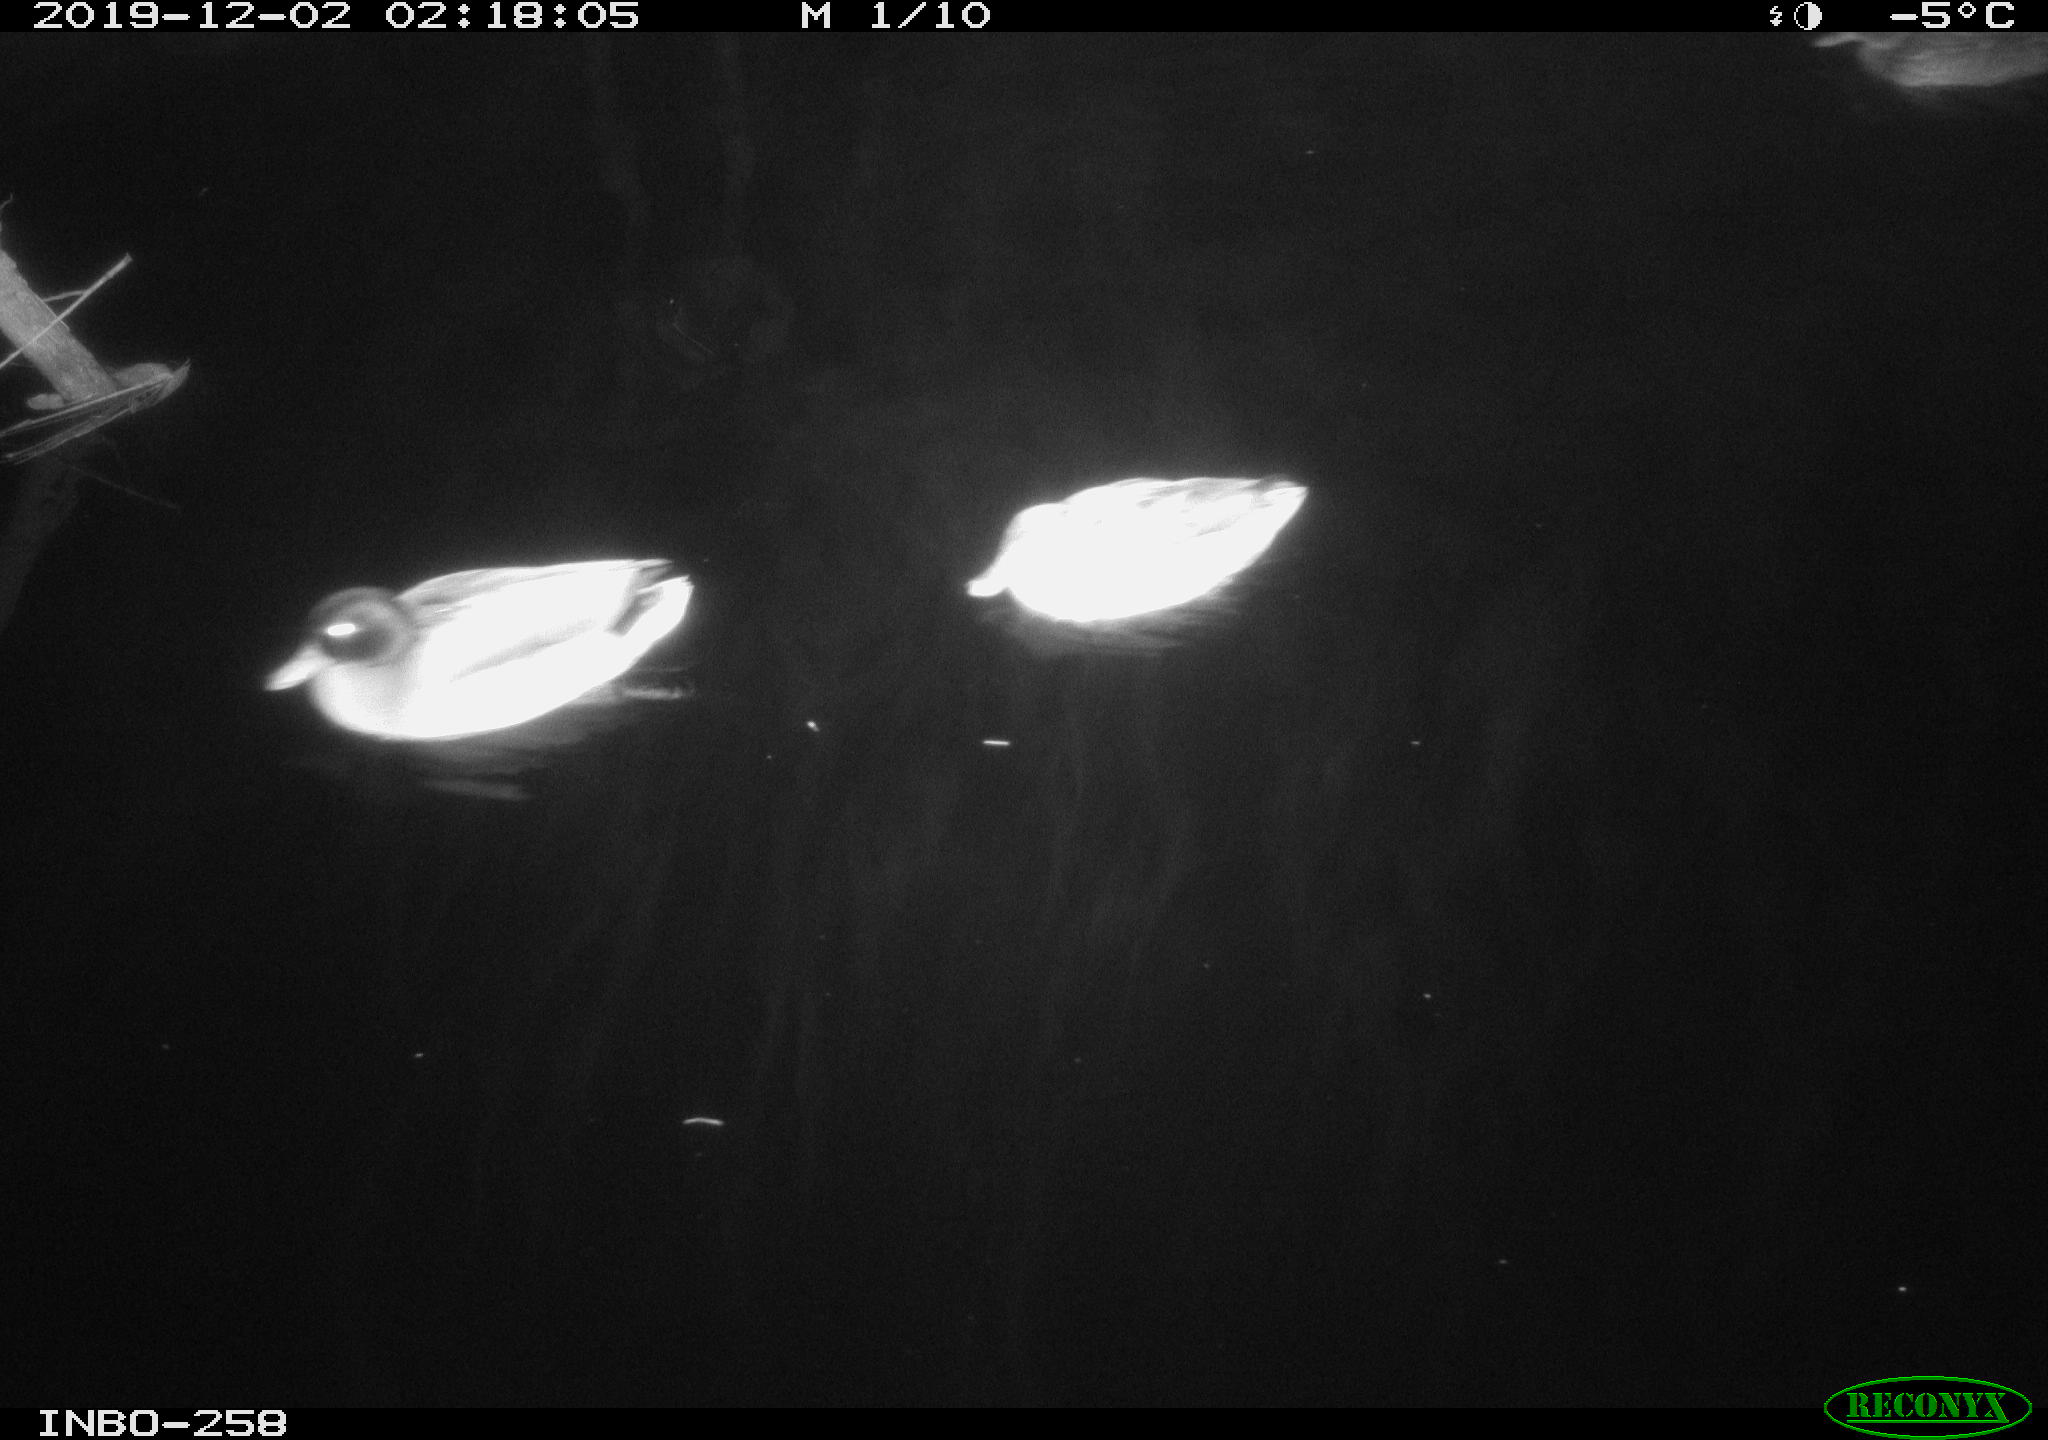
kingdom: Animalia
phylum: Chordata
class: Aves
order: Anseriformes
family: Anatidae
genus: Anas
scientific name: Anas platyrhynchos
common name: Mallard
